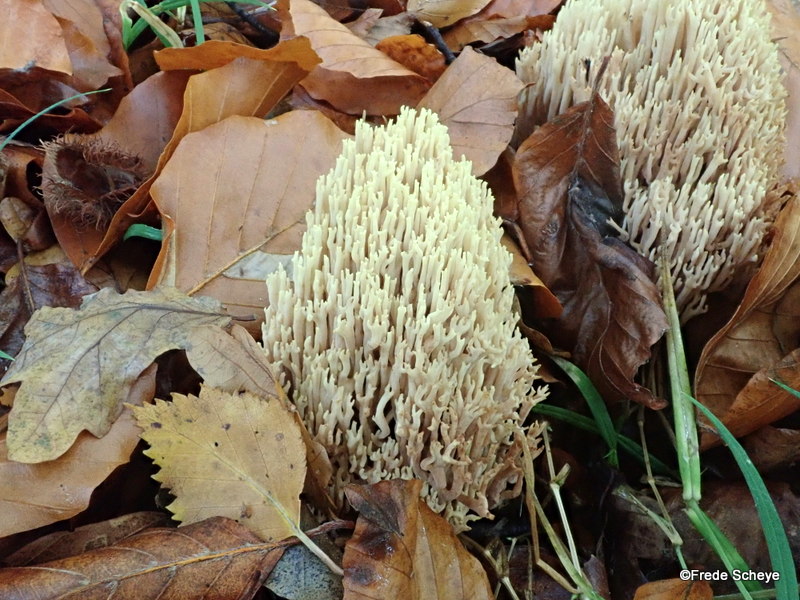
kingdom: Fungi
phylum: Basidiomycota
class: Agaricomycetes
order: Gomphales
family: Gomphaceae
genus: Ramaria
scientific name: Ramaria stricta
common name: rank koralsvamp
